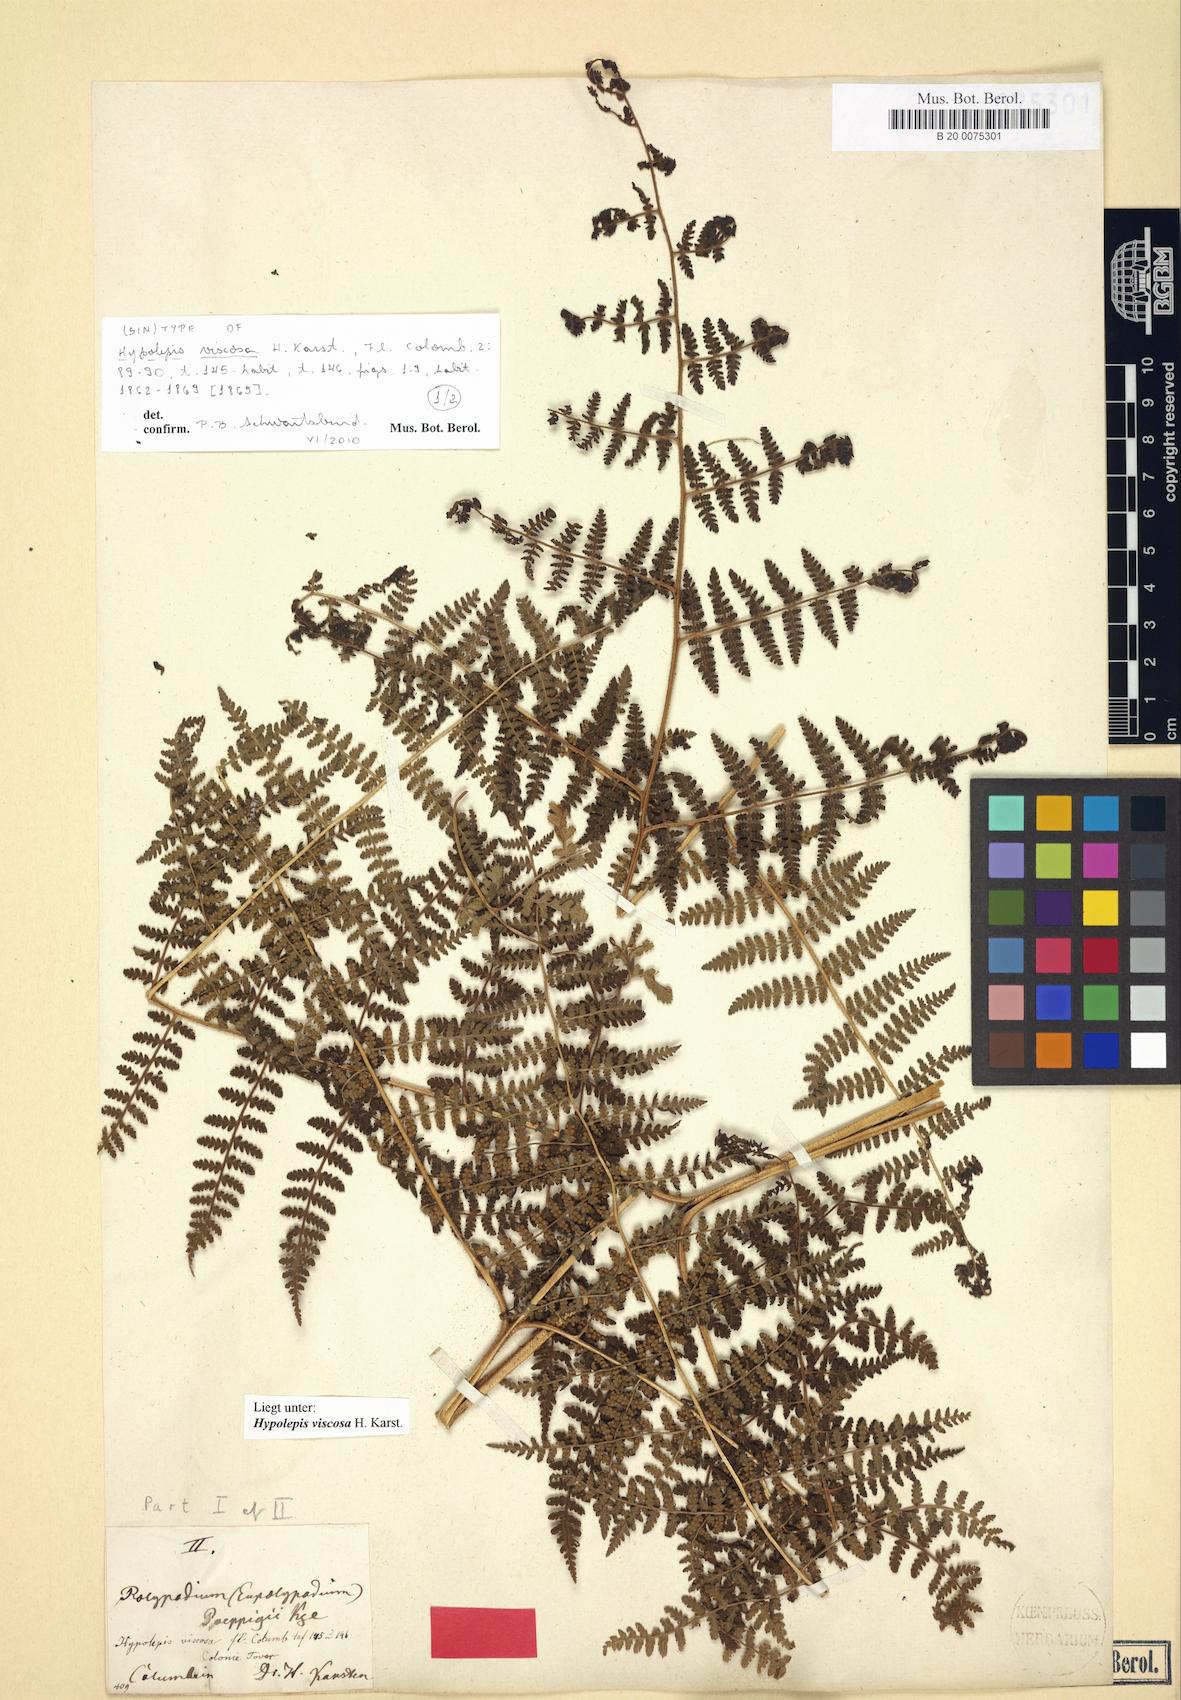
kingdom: Plantae
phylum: Tracheophyta
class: Polypodiopsida
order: Polypodiales
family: Dennstaedtiaceae
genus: Hypolepis
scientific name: Hypolepis viscosa
